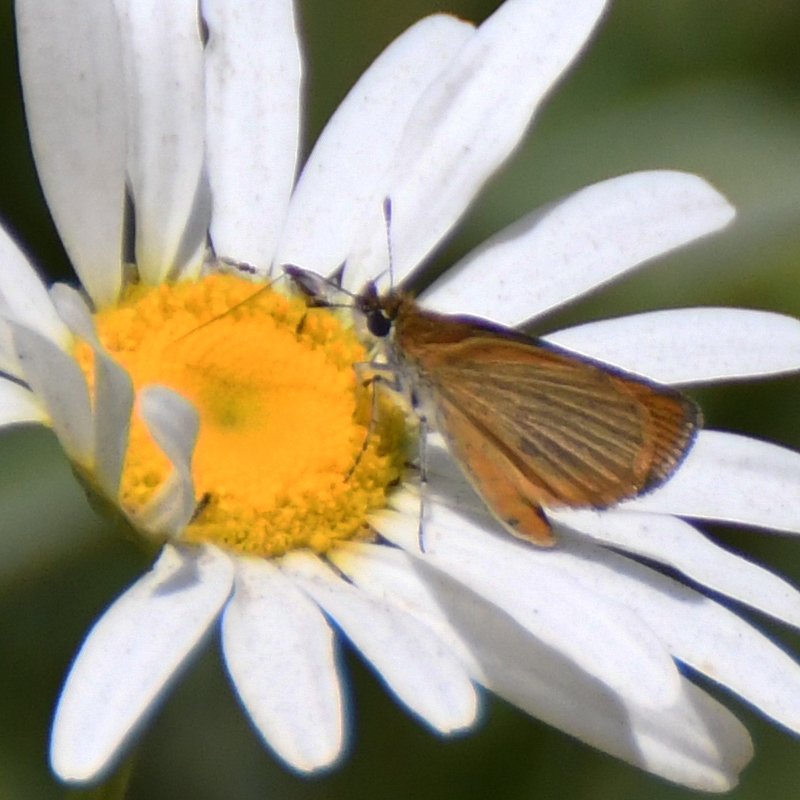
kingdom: Animalia
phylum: Arthropoda
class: Insecta
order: Lepidoptera
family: Hesperiidae
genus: Ancyloxypha
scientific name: Ancyloxypha numitor
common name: Least Skipper
